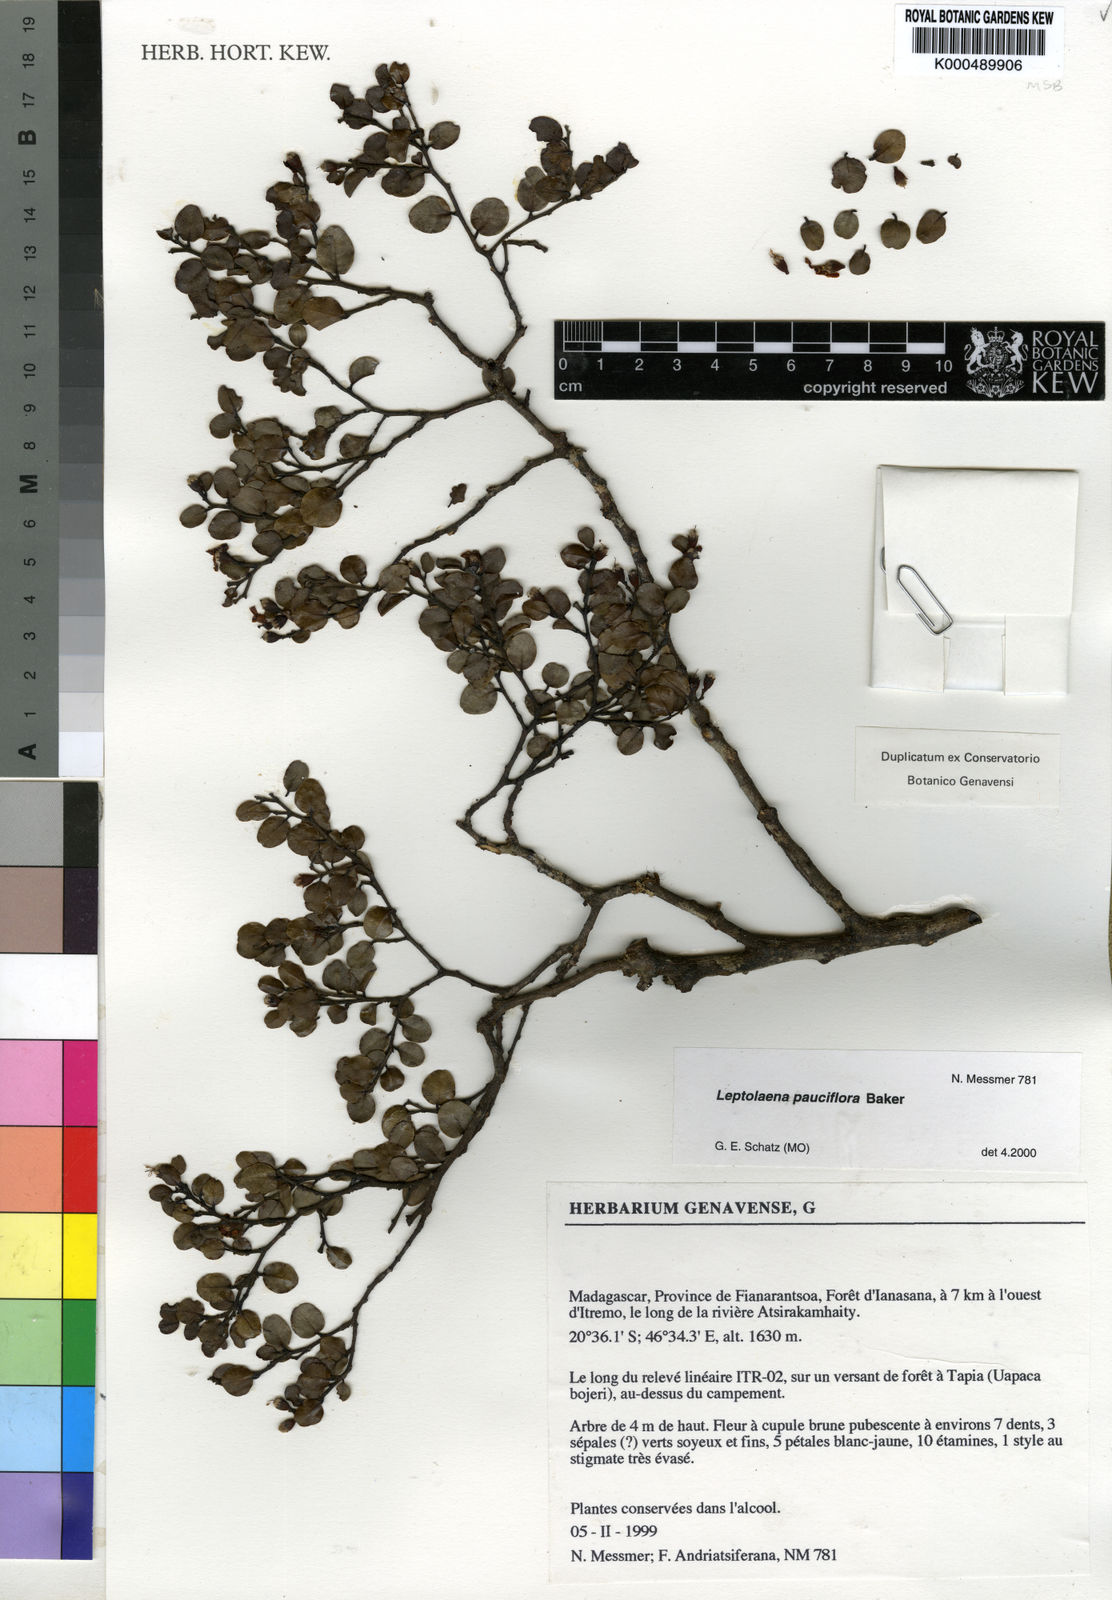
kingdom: Plantae
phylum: Tracheophyta
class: Magnoliopsida
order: Malvales
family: Sarcolaenaceae
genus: Leptolaena
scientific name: Leptolaena pauciflora
